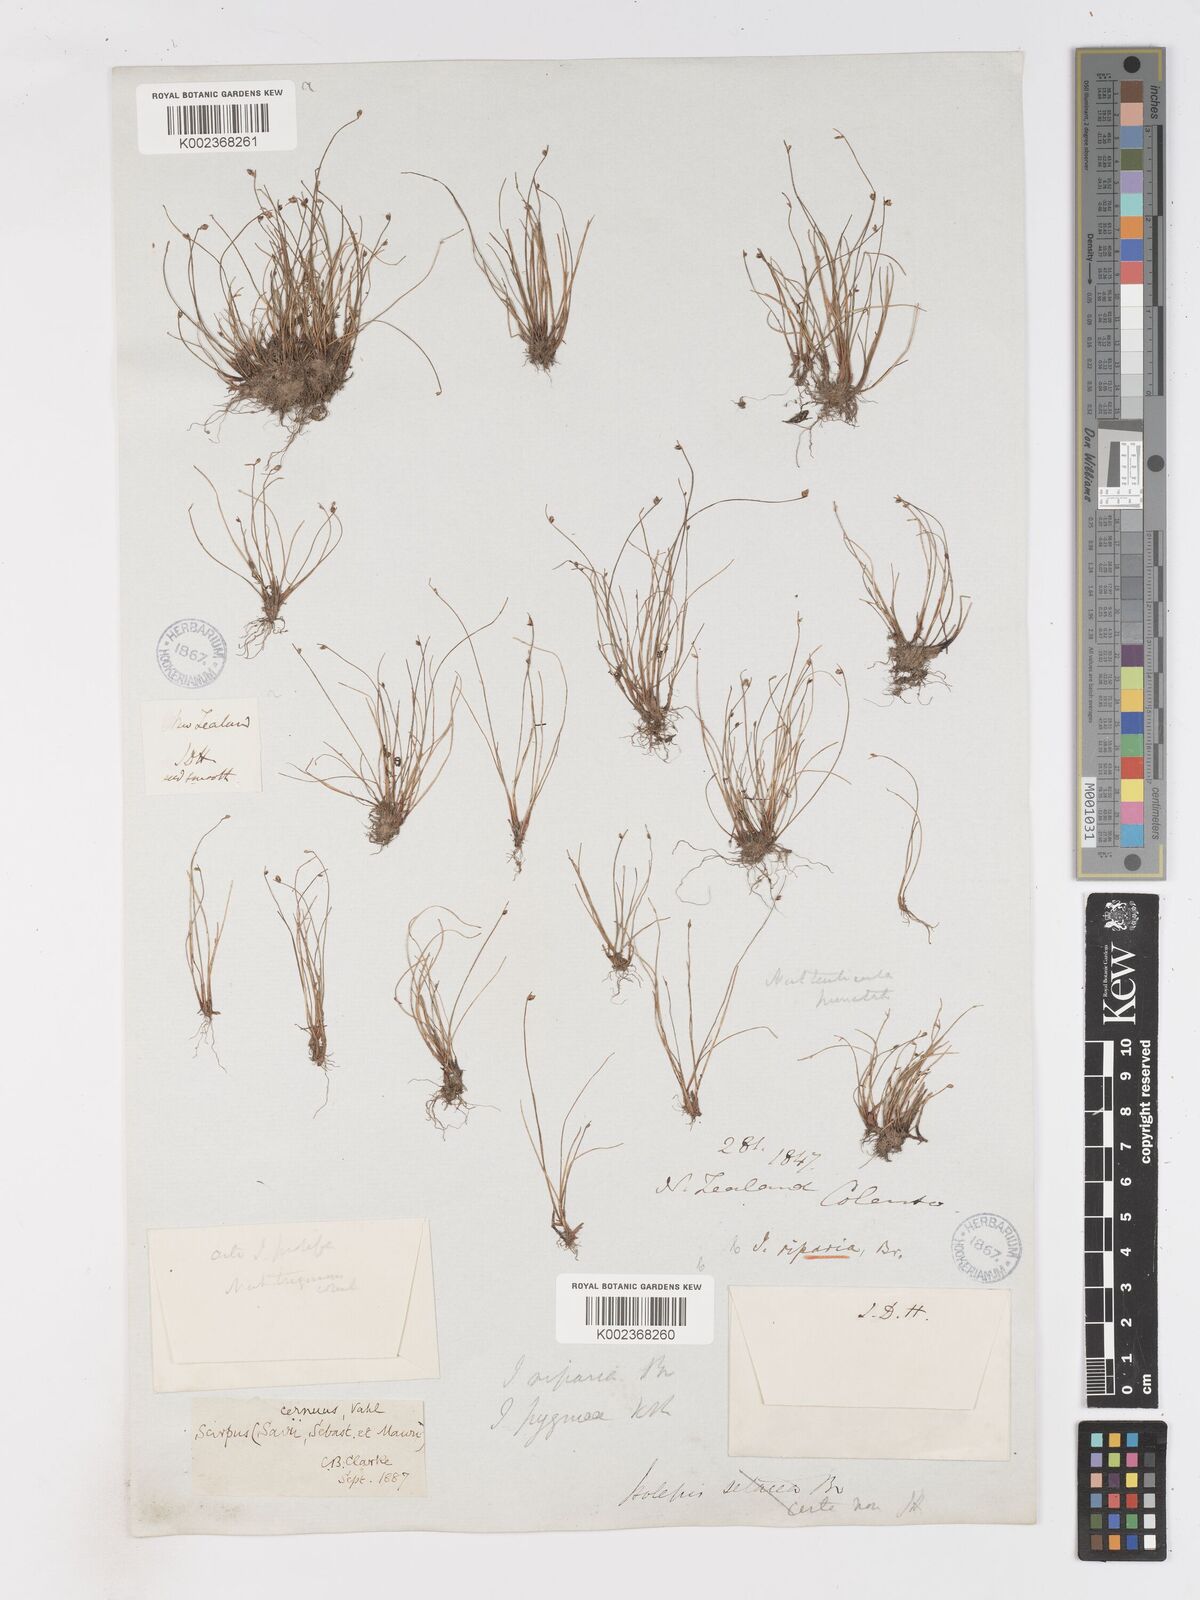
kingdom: Plantae
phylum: Tracheophyta
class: Liliopsida
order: Poales
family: Cyperaceae
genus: Isolepis
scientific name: Isolepis cernua
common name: Slender club-rush
